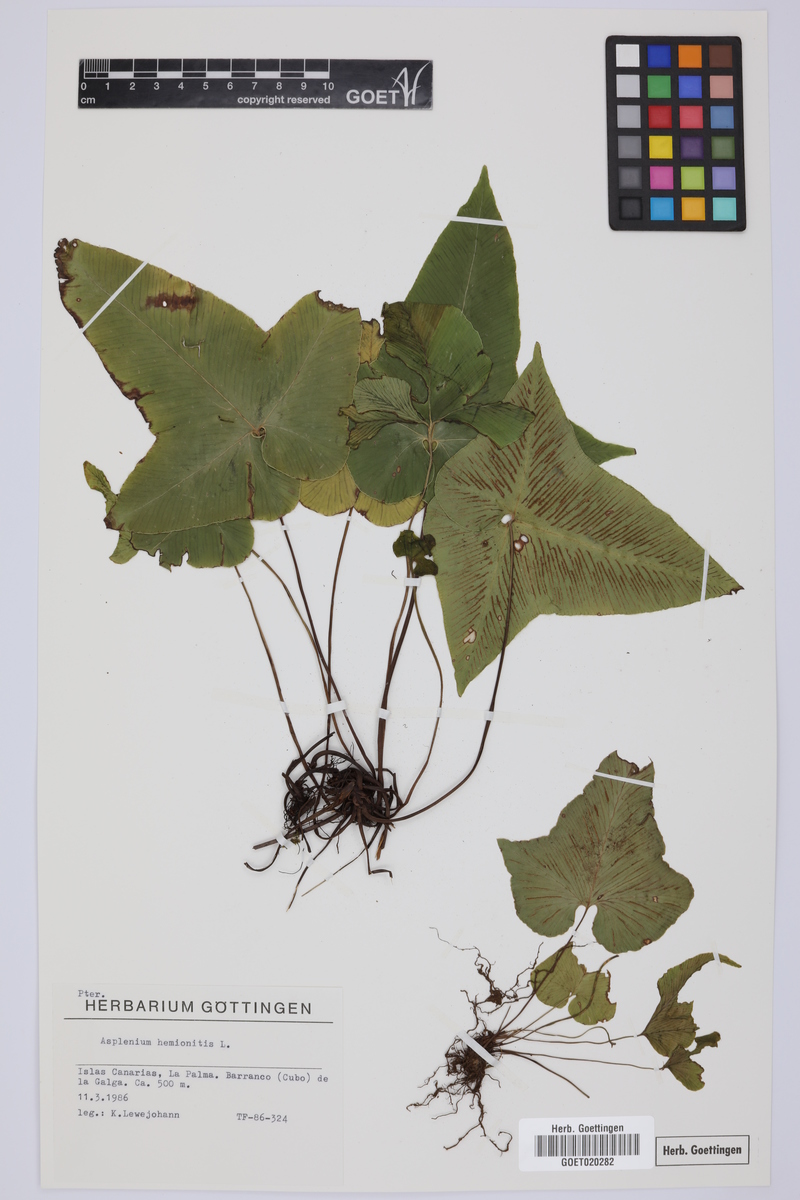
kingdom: Plantae
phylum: Tracheophyta
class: Polypodiopsida
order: Polypodiales
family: Aspleniaceae
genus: Asplenium
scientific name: Asplenium hemionitis
